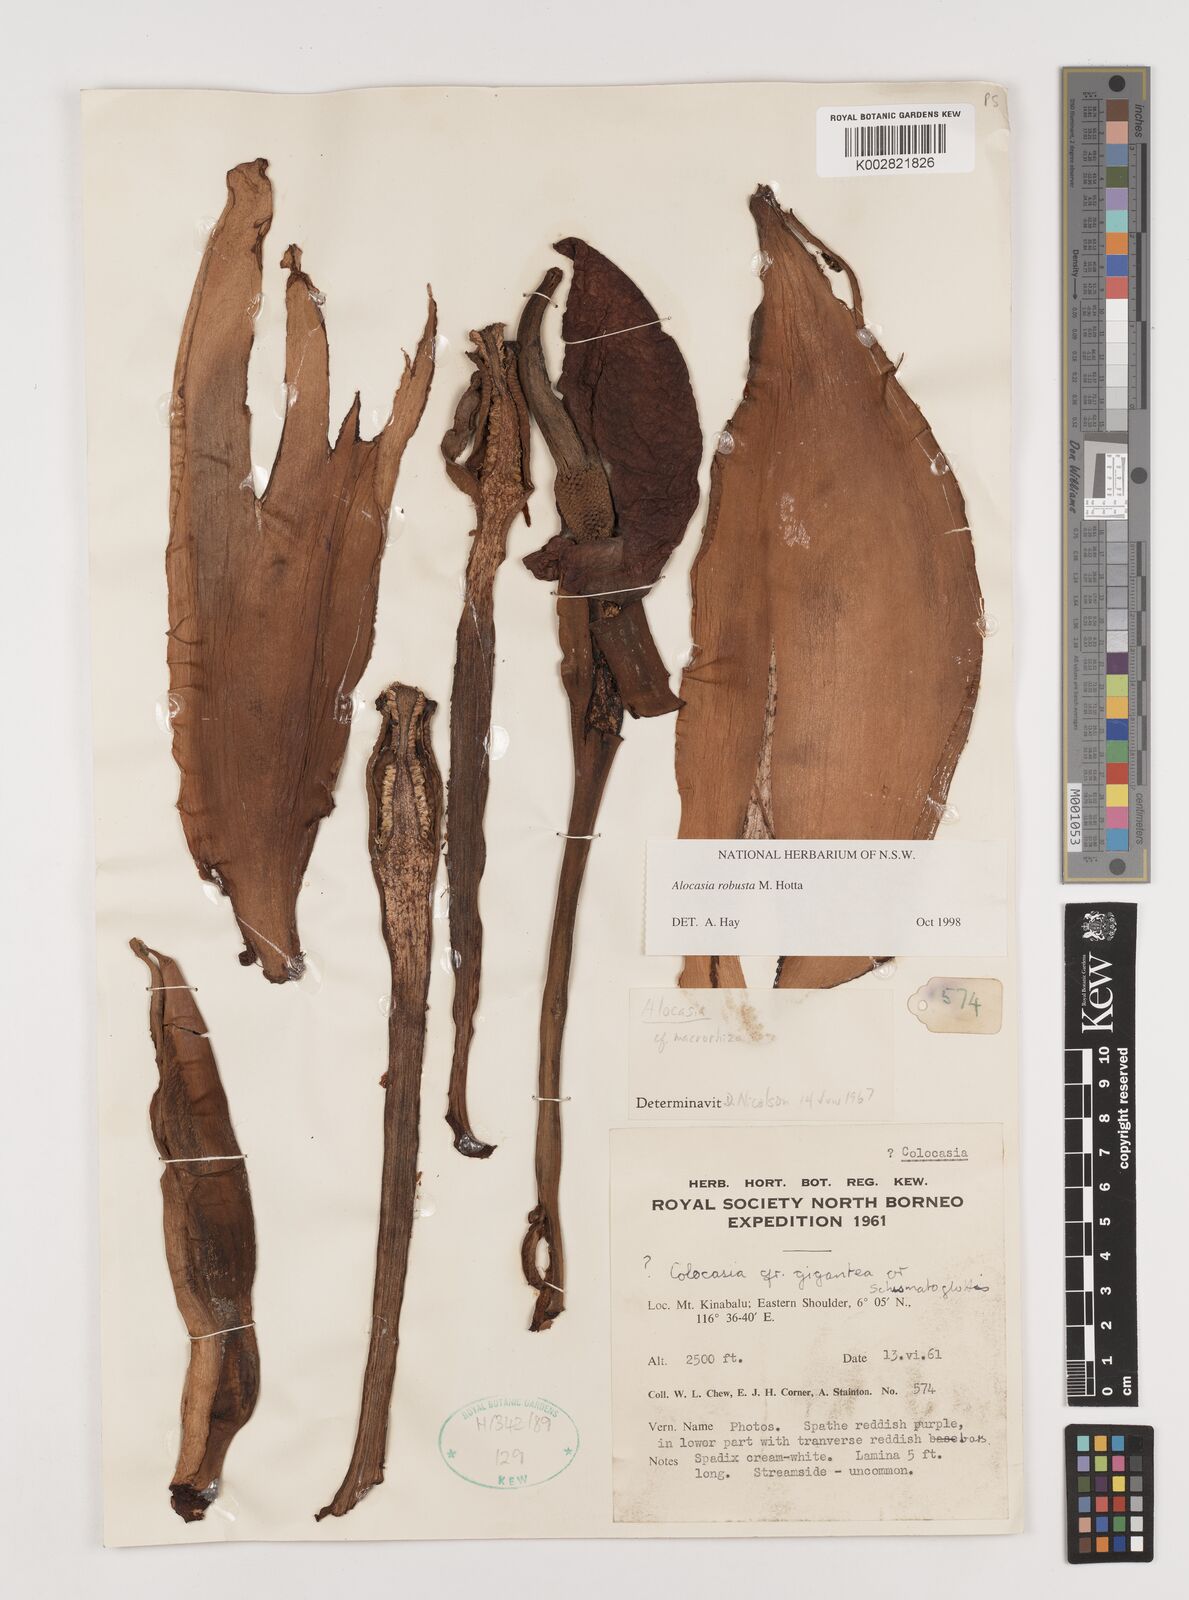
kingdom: Plantae
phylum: Tracheophyta
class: Liliopsida
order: Alismatales
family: Araceae
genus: Alocasia
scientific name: Alocasia robusta
